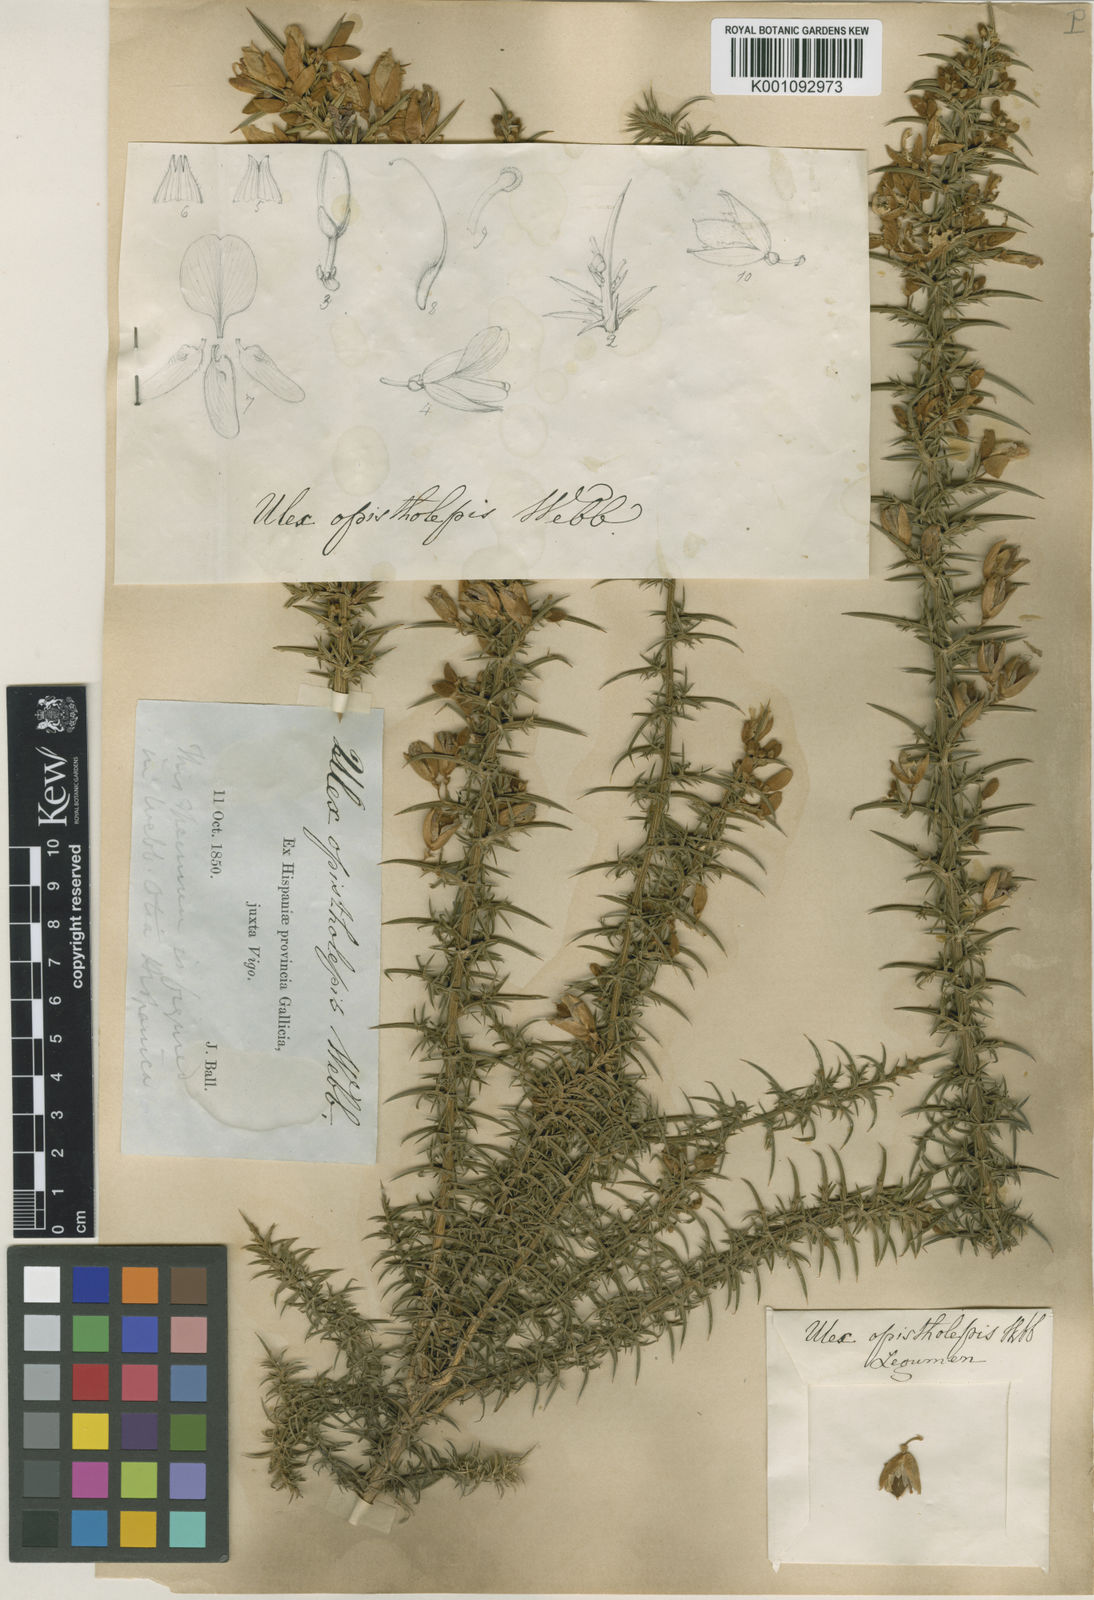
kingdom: Plantae
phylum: Tracheophyta
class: Magnoliopsida
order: Fabales
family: Fabaceae
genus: Ulex
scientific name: Ulex europaeus
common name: Common gorse
